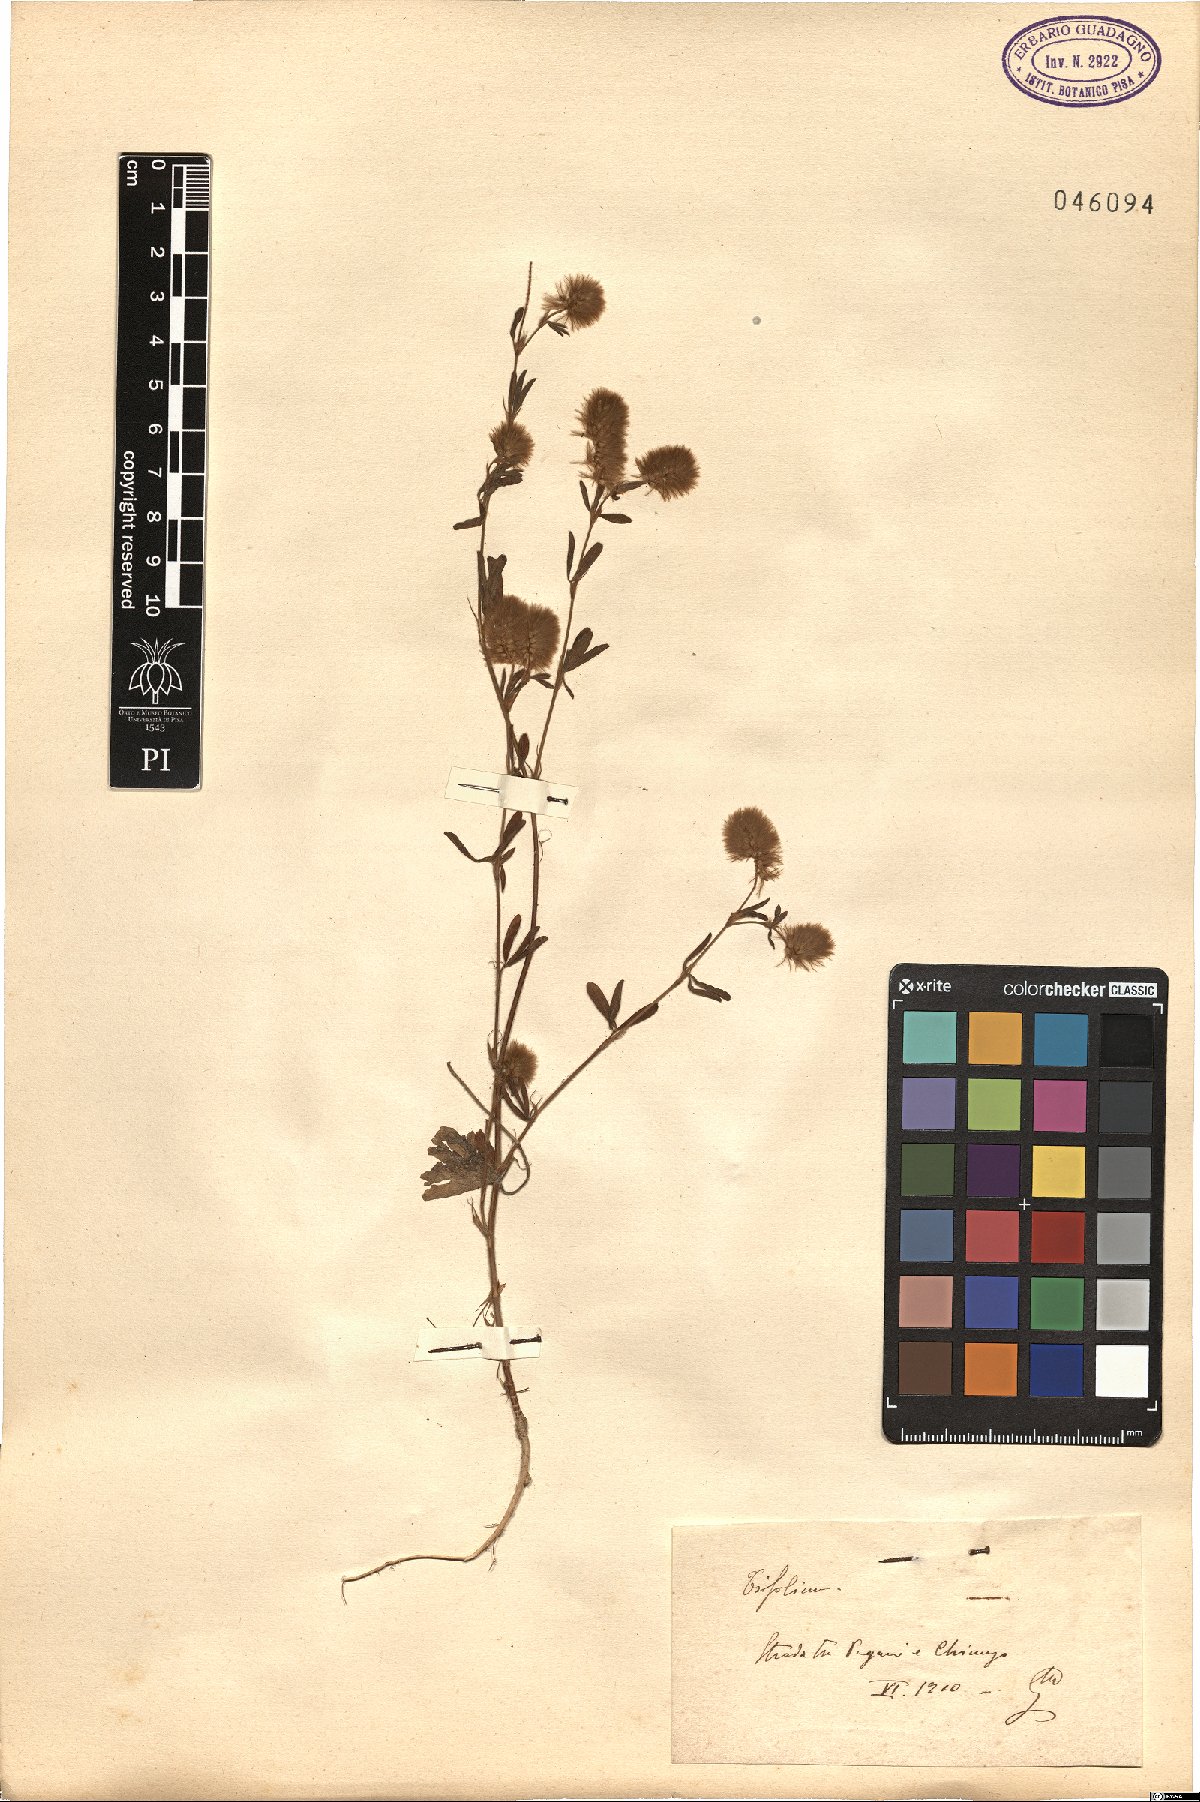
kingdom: Plantae
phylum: Tracheophyta
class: Magnoliopsida
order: Fabales
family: Fabaceae
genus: Trifolium
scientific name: Trifolium
